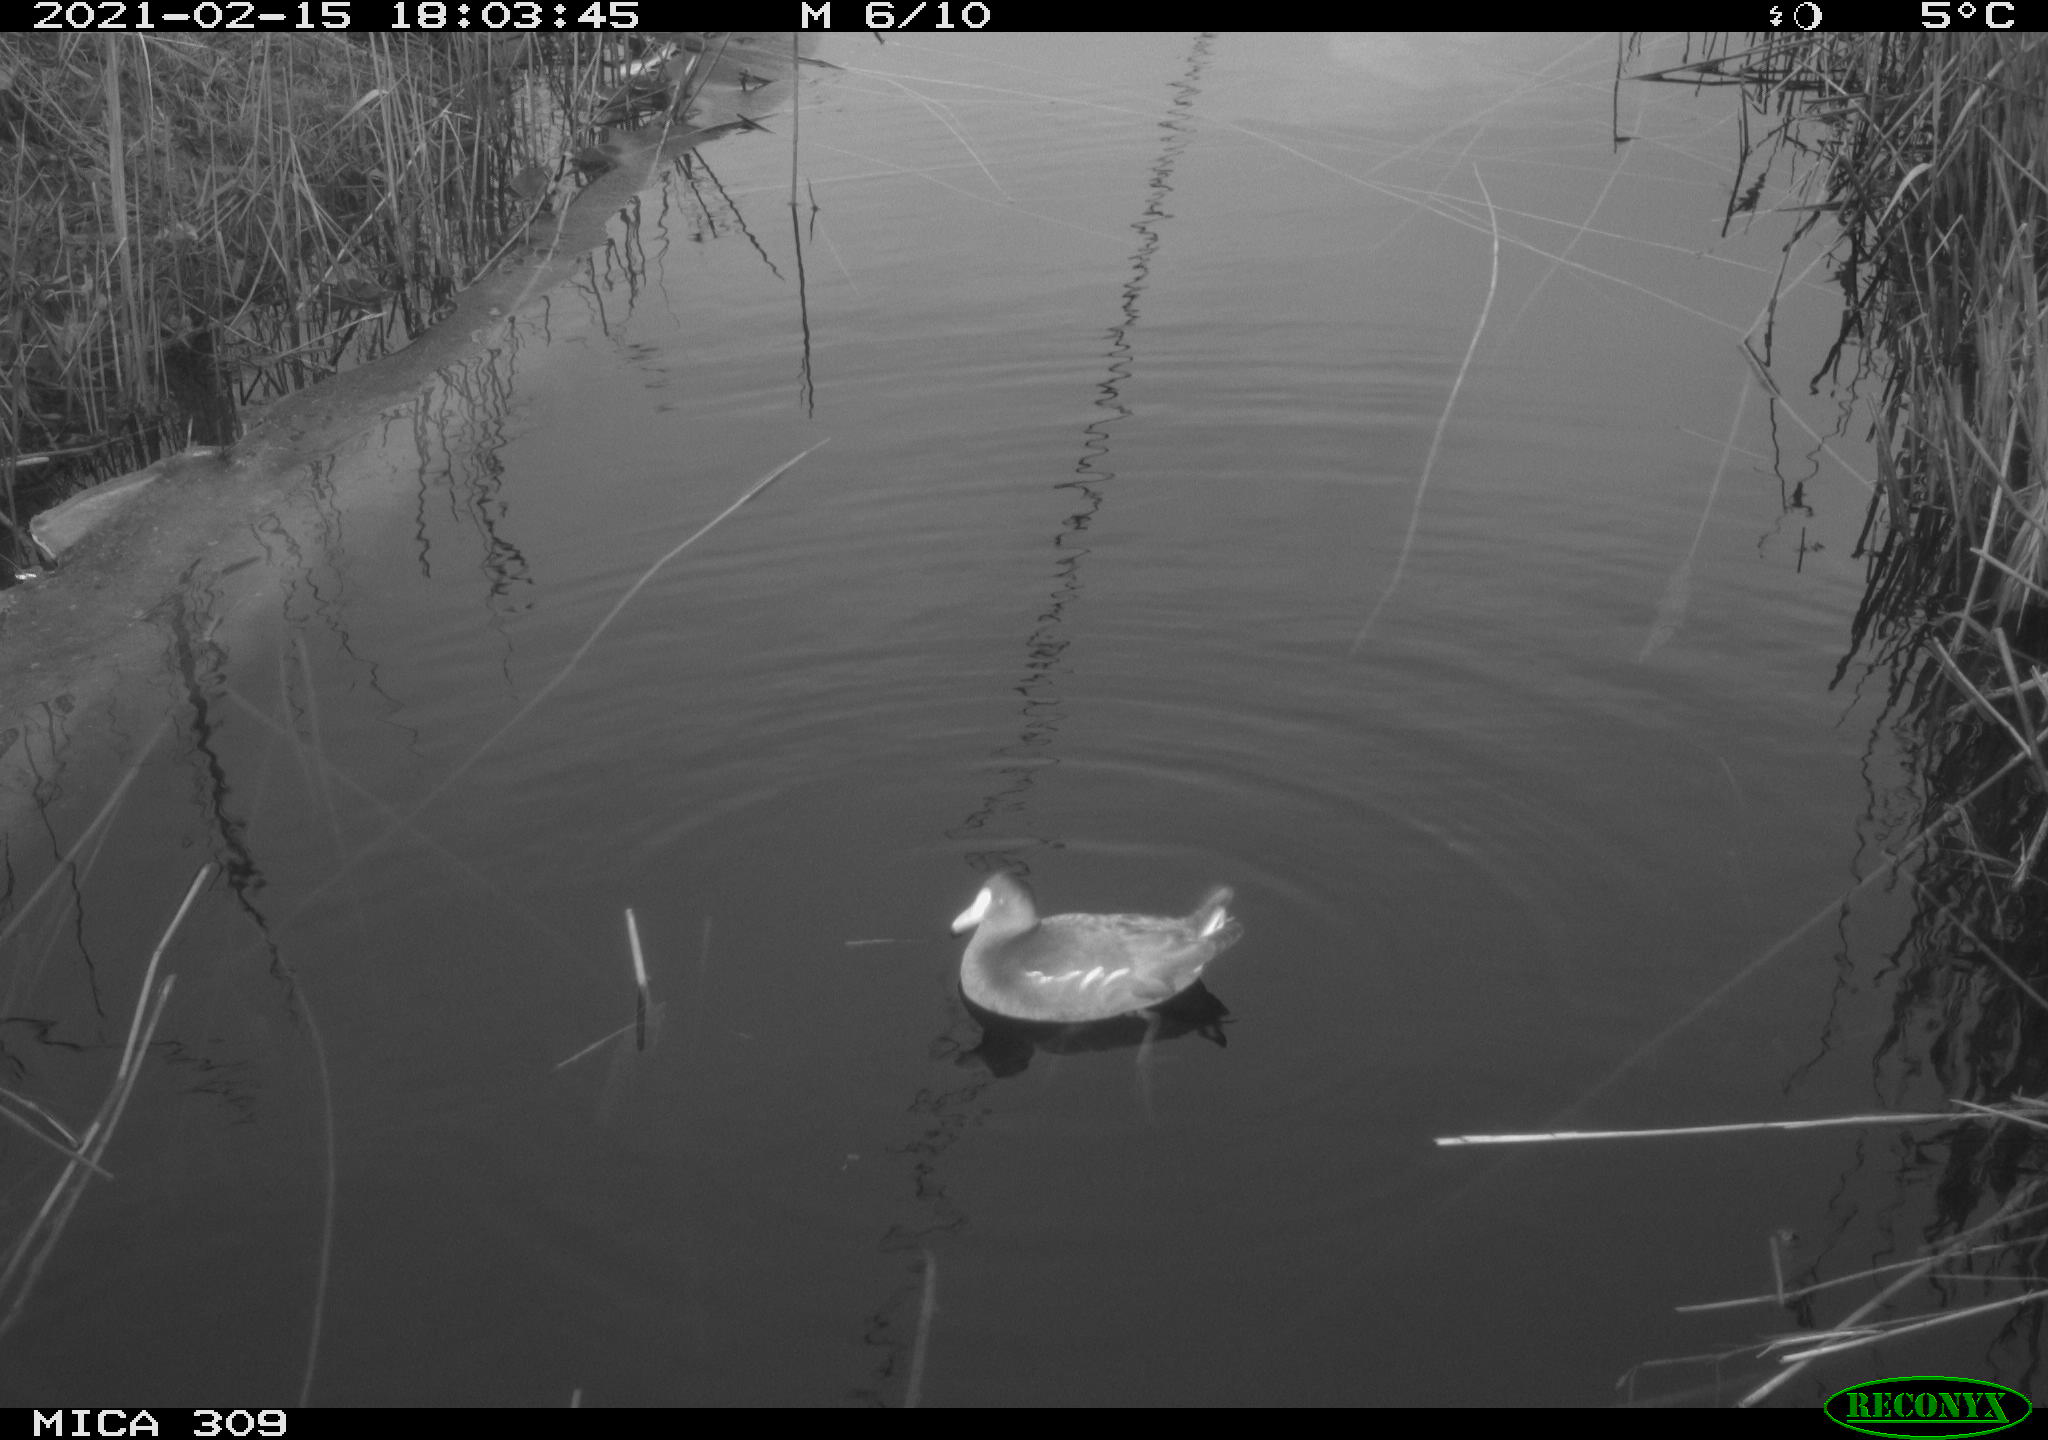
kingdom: Animalia
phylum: Chordata
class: Aves
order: Gruiformes
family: Rallidae
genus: Gallinula
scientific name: Gallinula chloropus
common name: Common moorhen
